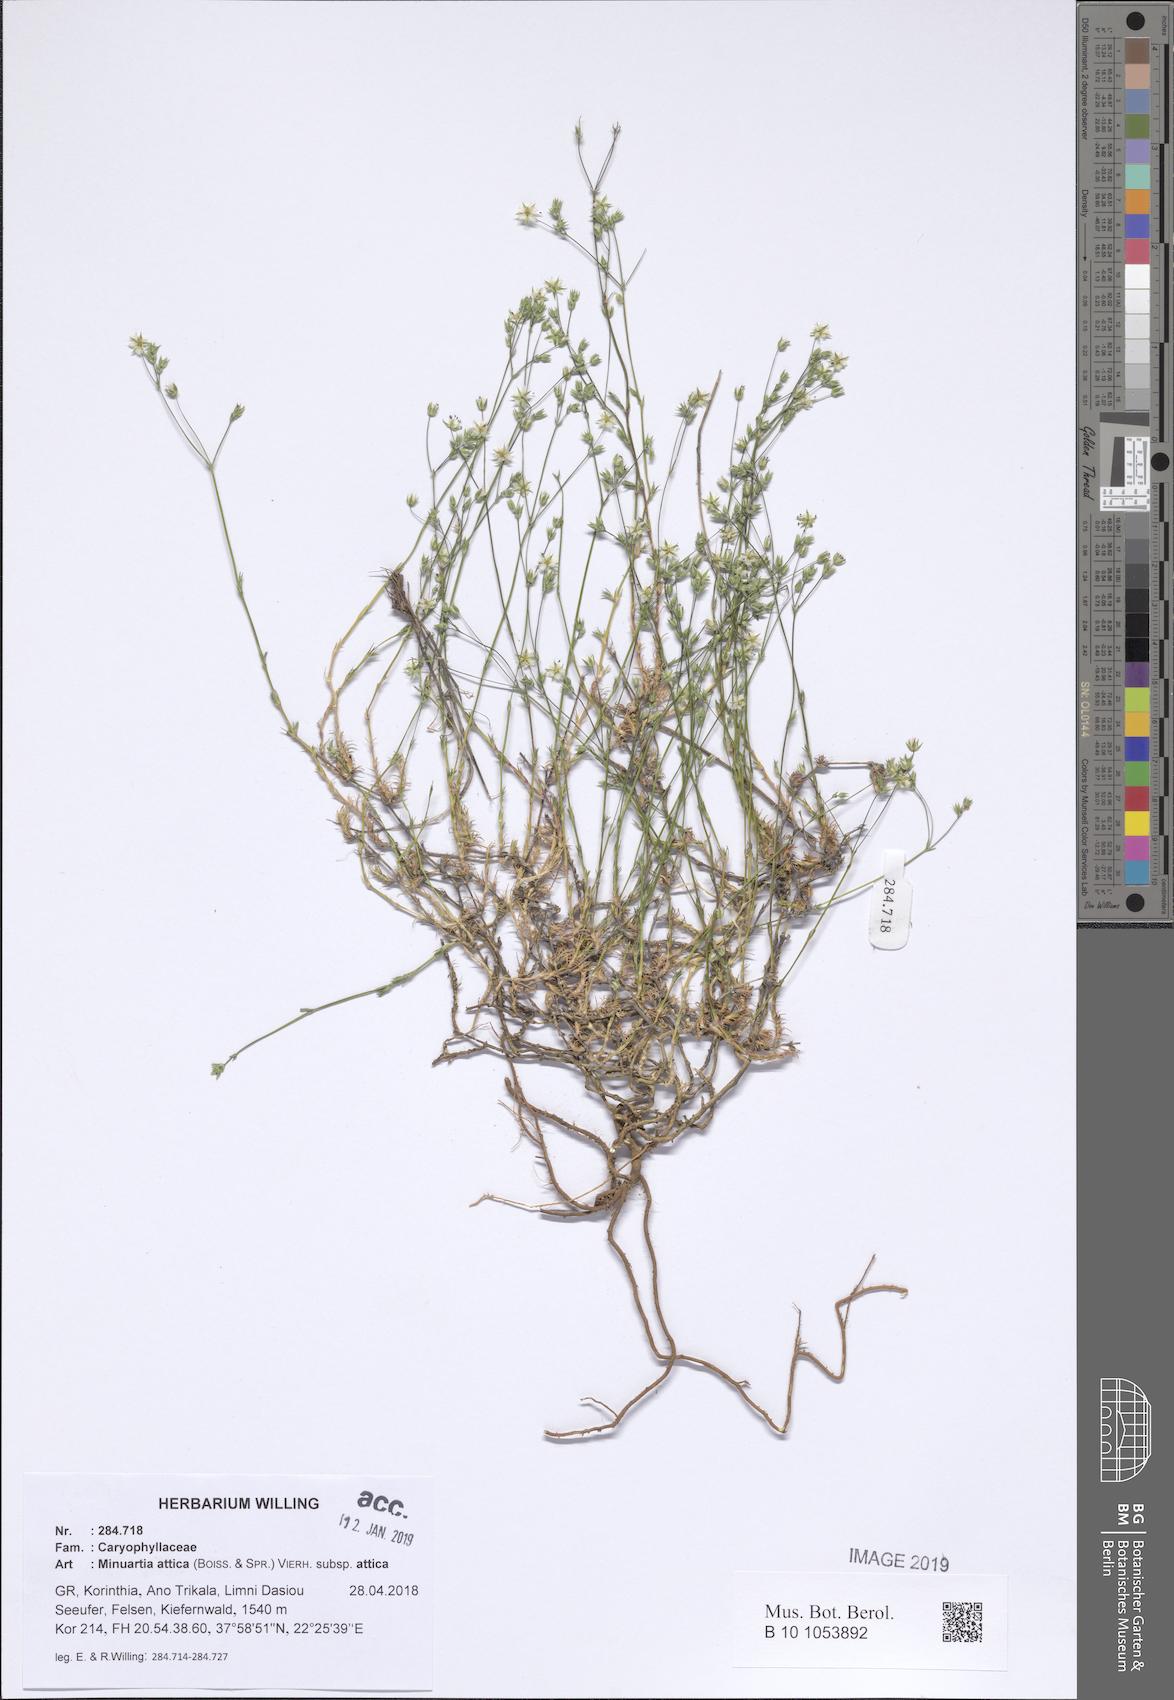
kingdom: Plantae
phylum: Tracheophyta
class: Magnoliopsida
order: Caryophyllales
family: Caryophyllaceae
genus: Sabulina
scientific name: Sabulina attica
